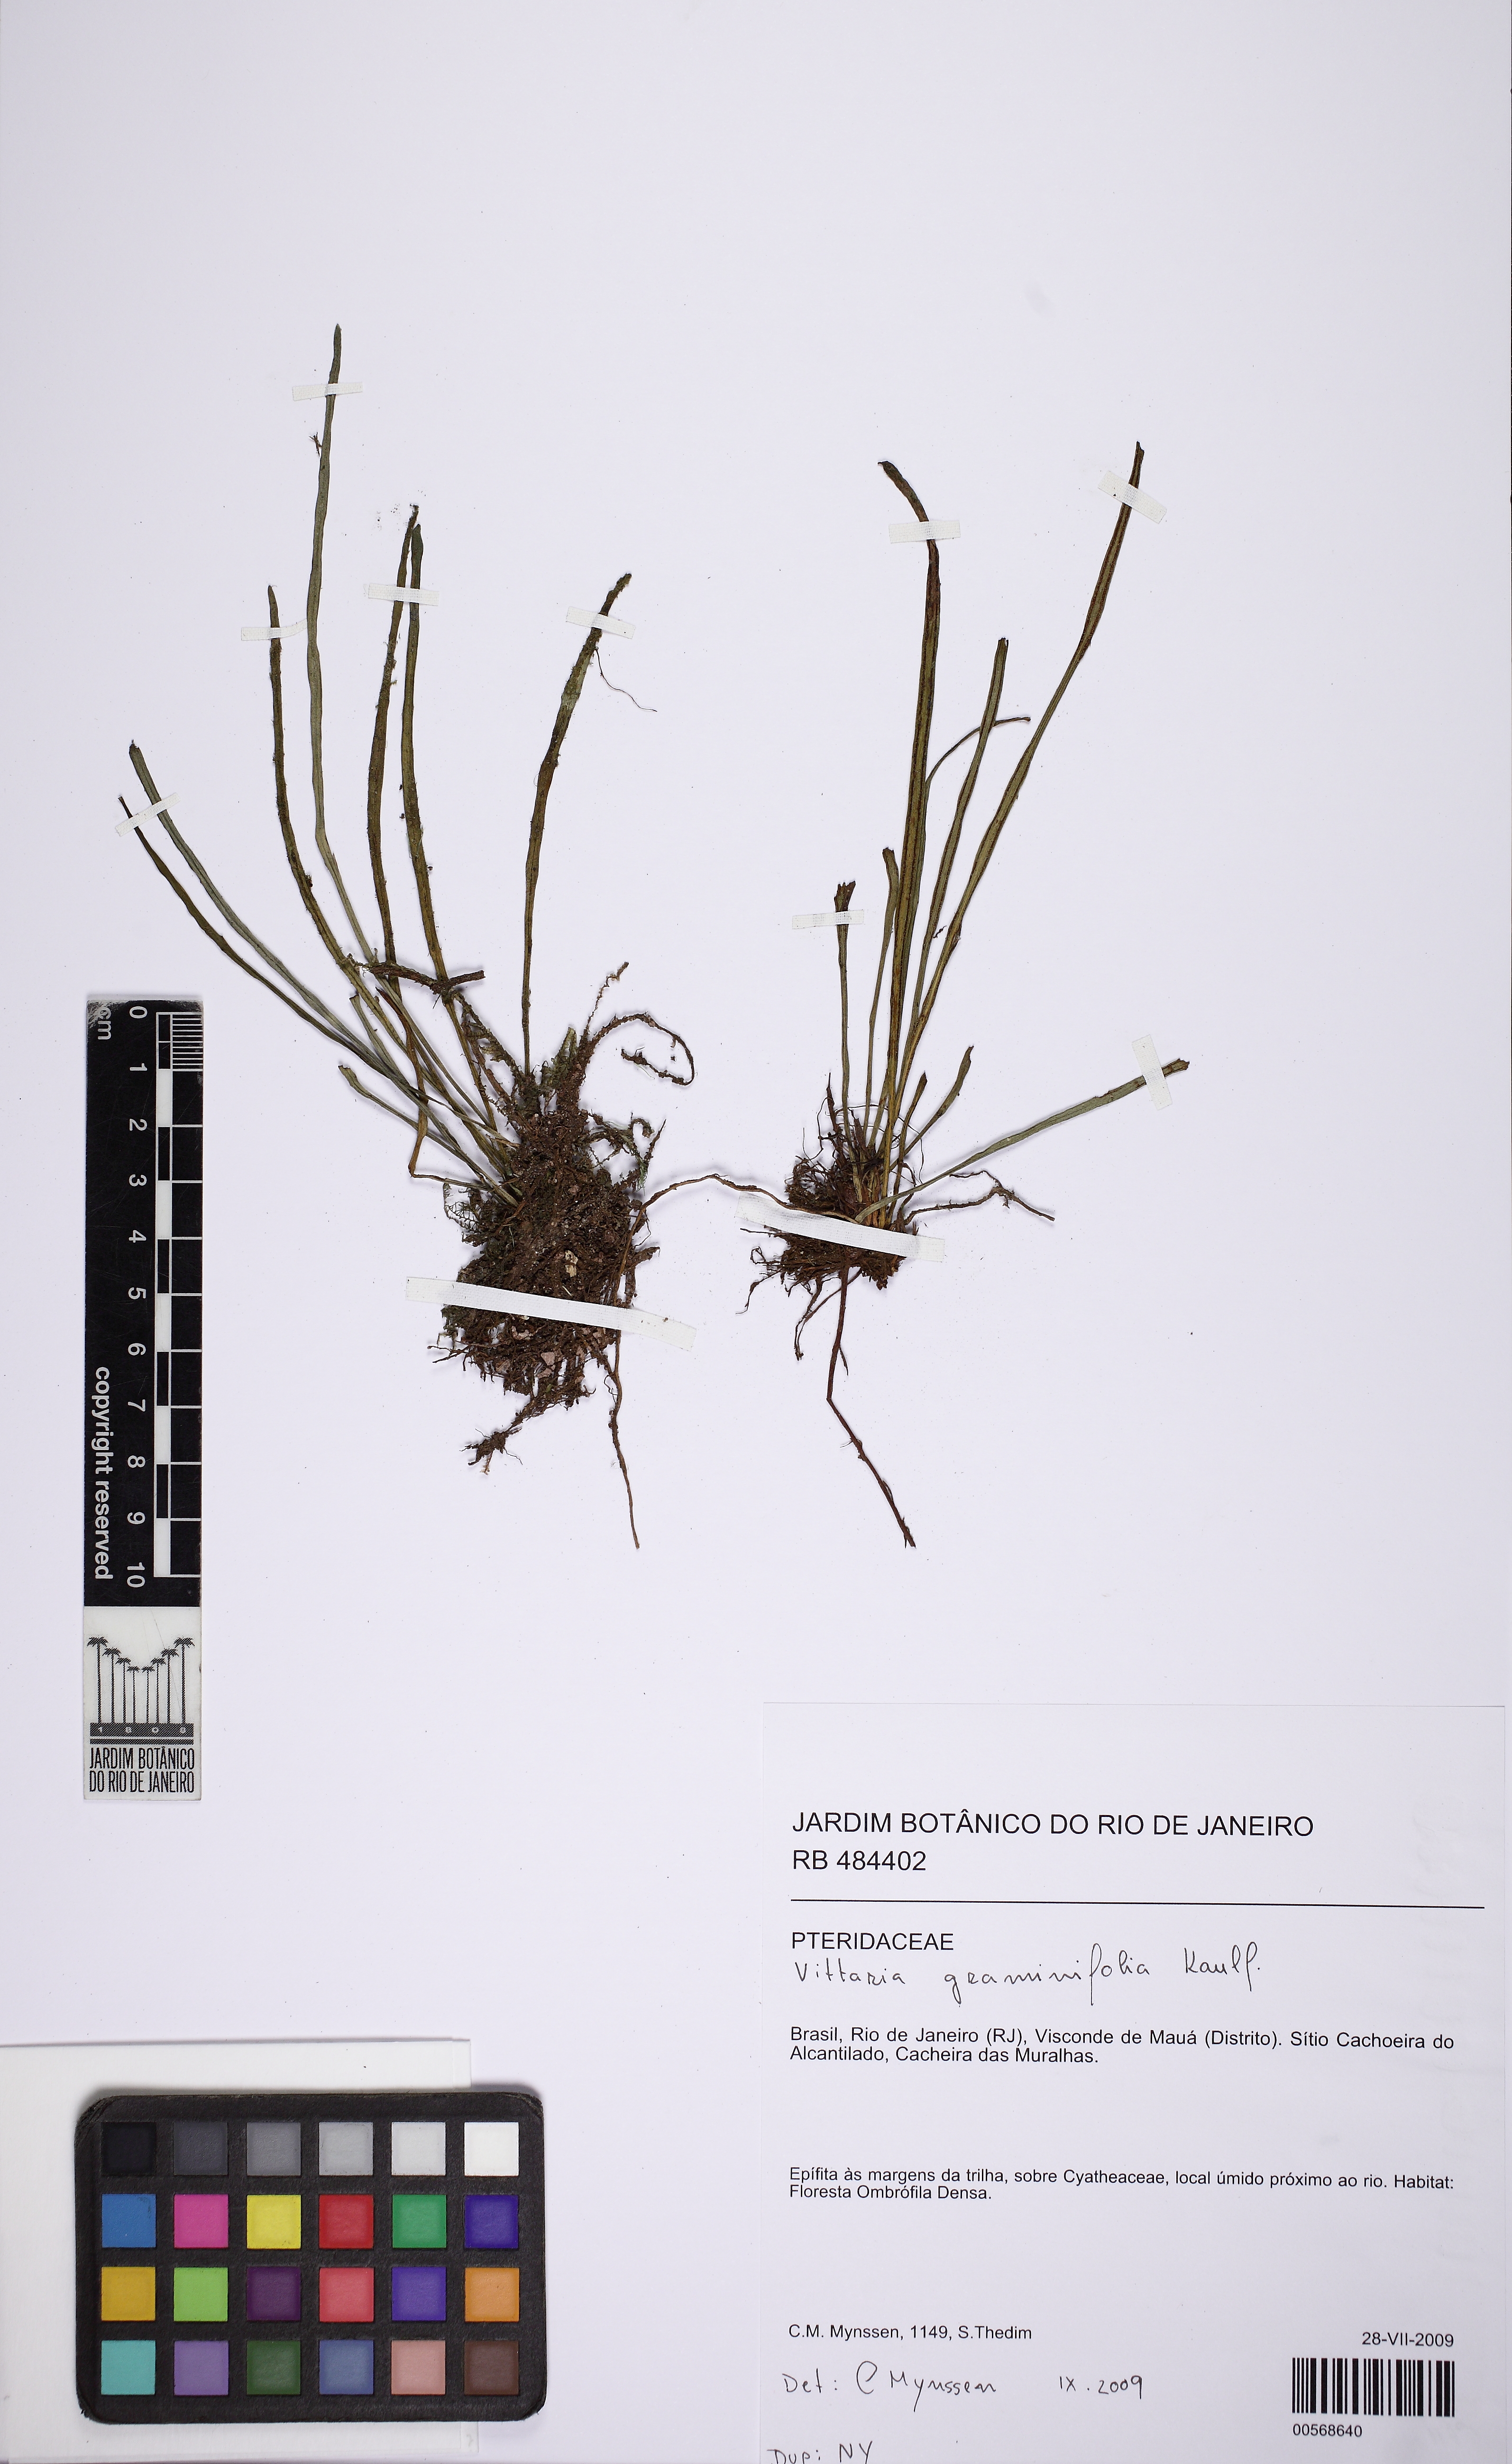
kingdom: Plantae
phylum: Tracheophyta
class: Polypodiopsida
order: Polypodiales
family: Pteridaceae
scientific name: Pteridaceae
